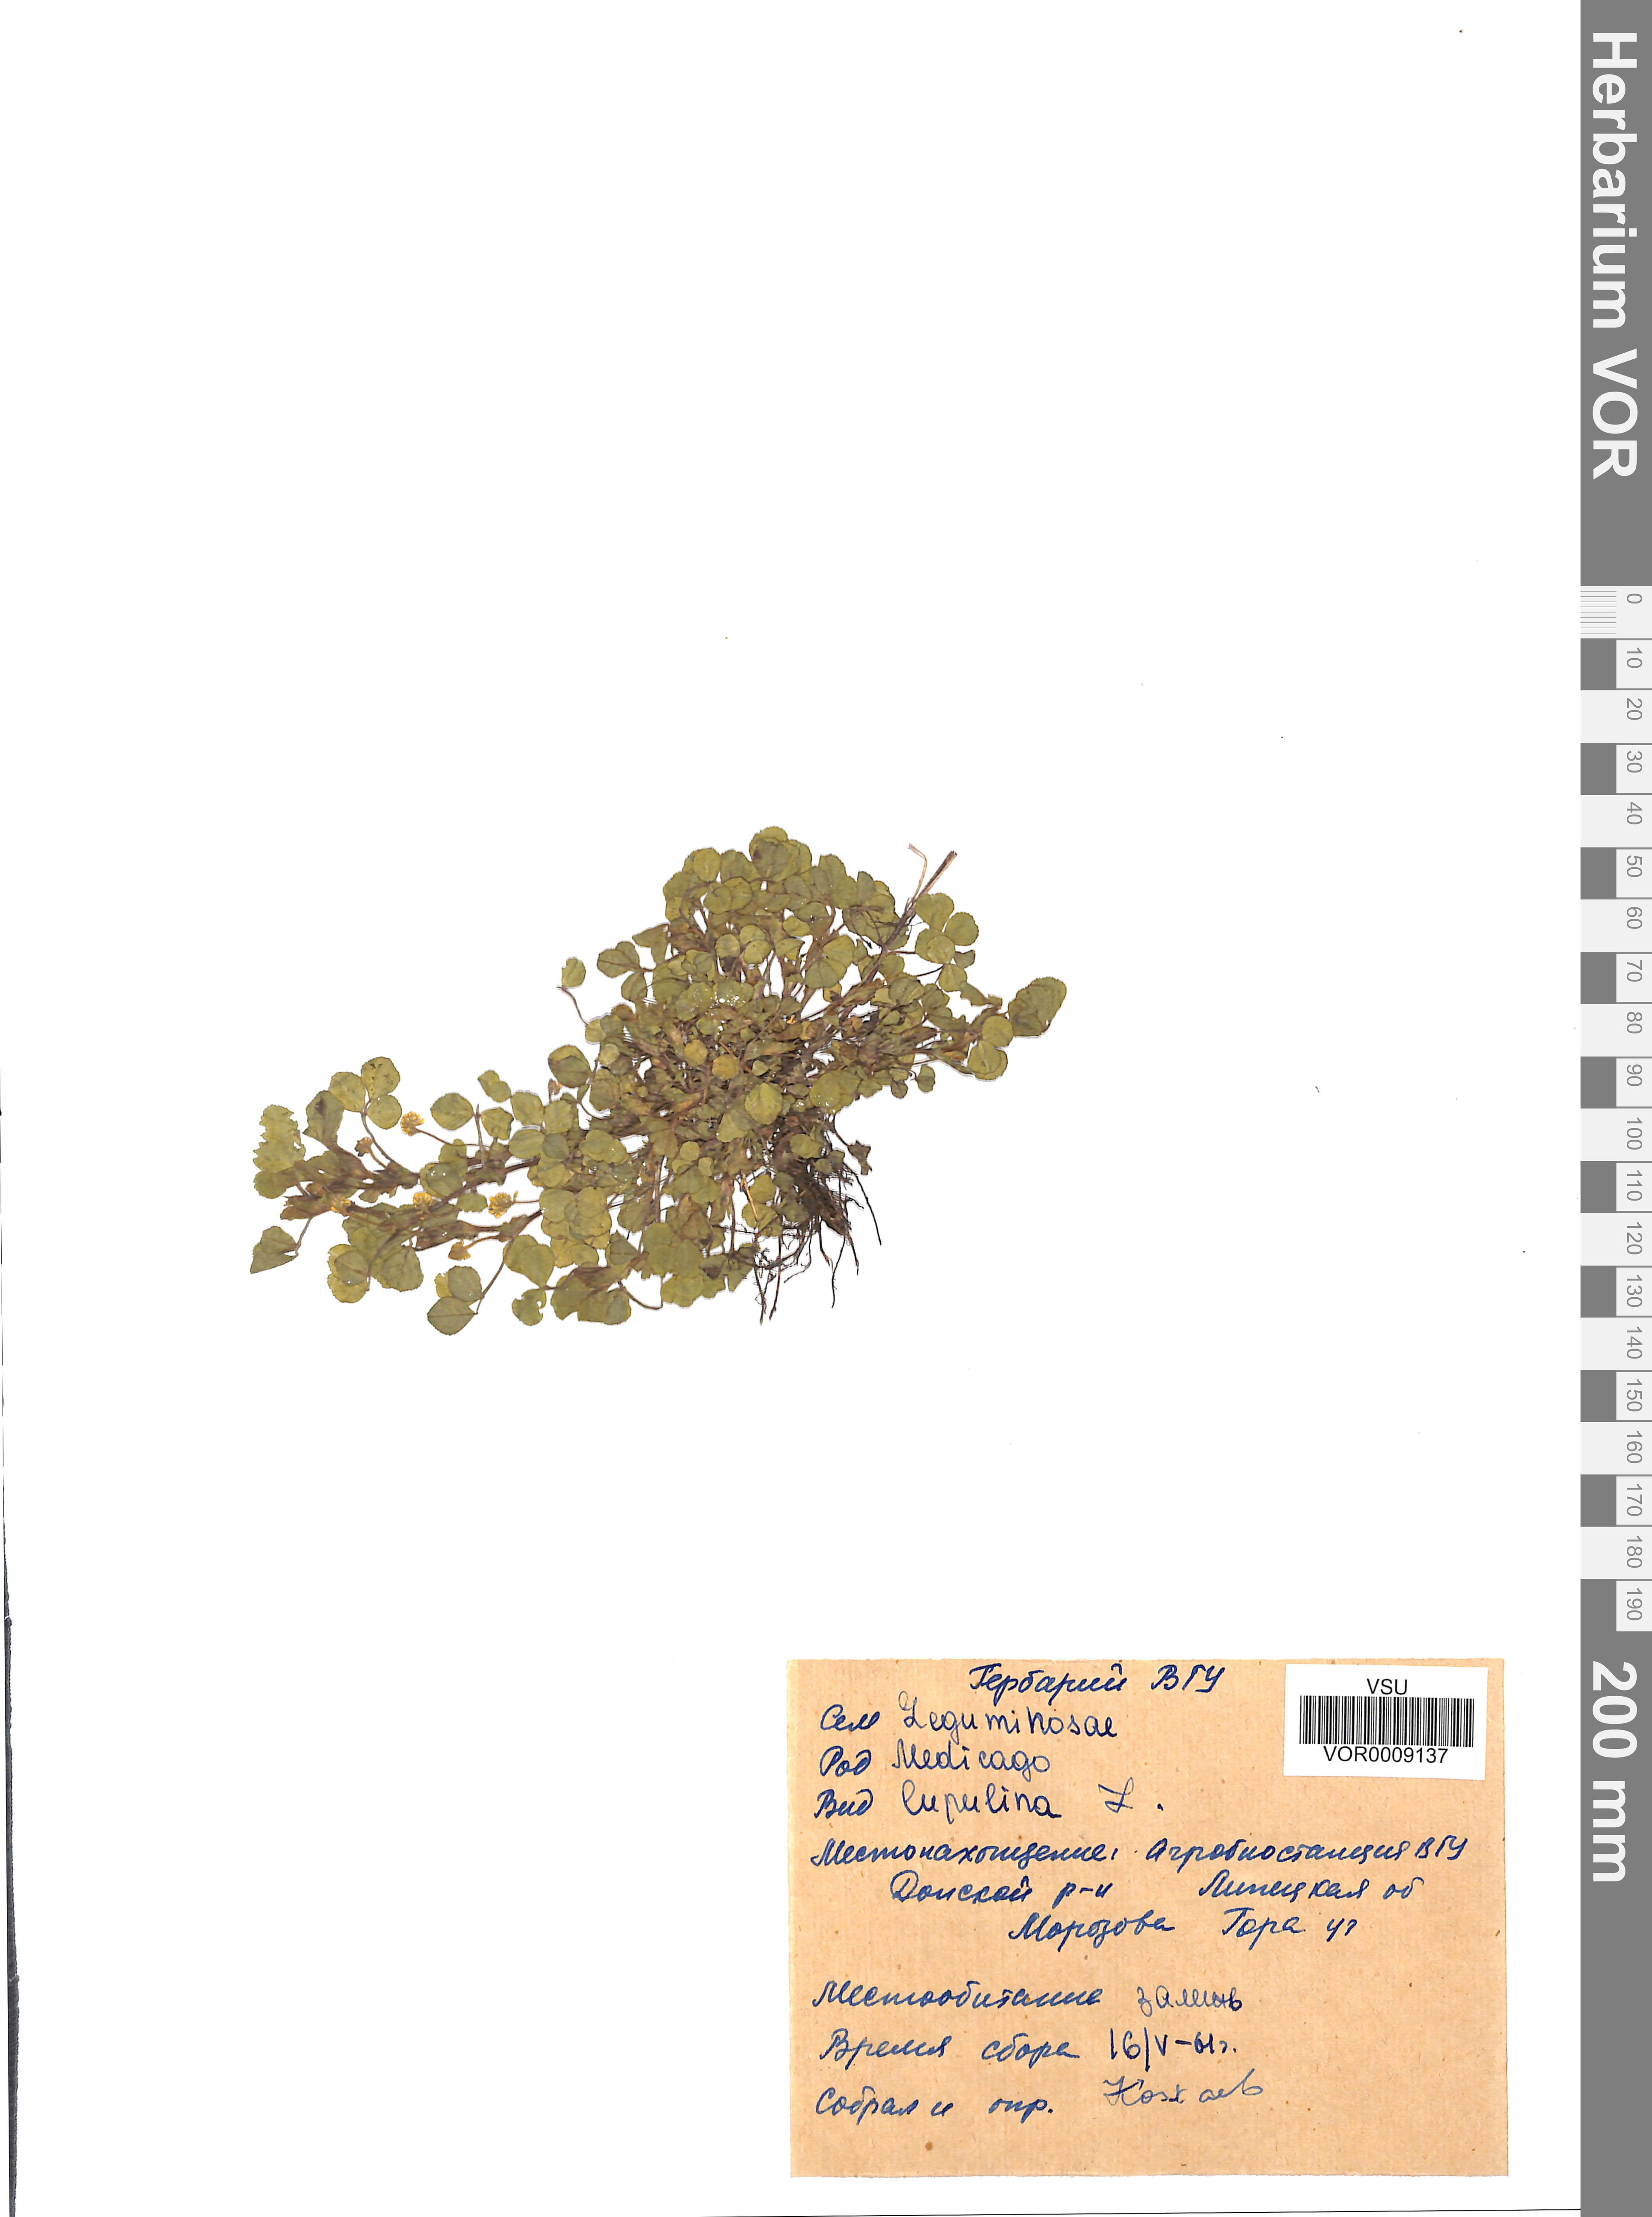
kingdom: Plantae
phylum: Tracheophyta
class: Magnoliopsida
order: Fabales
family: Fabaceae
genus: Medicago
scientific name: Medicago lupulina
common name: Black medick
